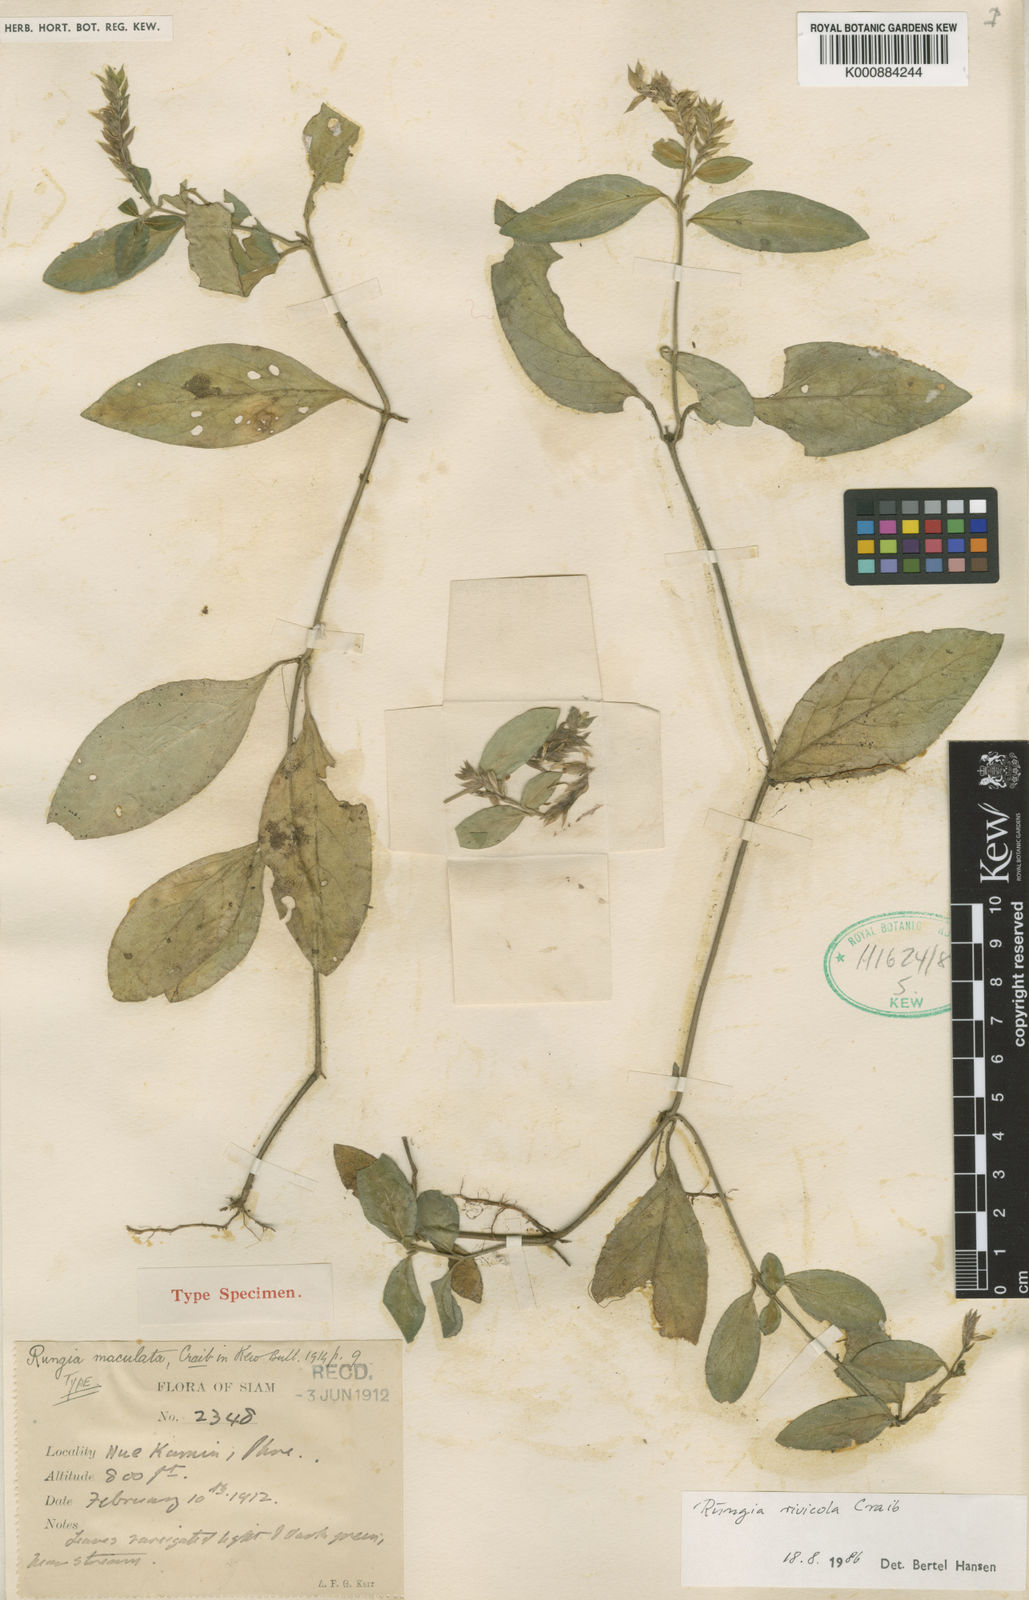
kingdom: Plantae
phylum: Tracheophyta
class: Magnoliopsida
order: Lamiales
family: Acanthaceae
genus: Justicia
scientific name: Justicia
